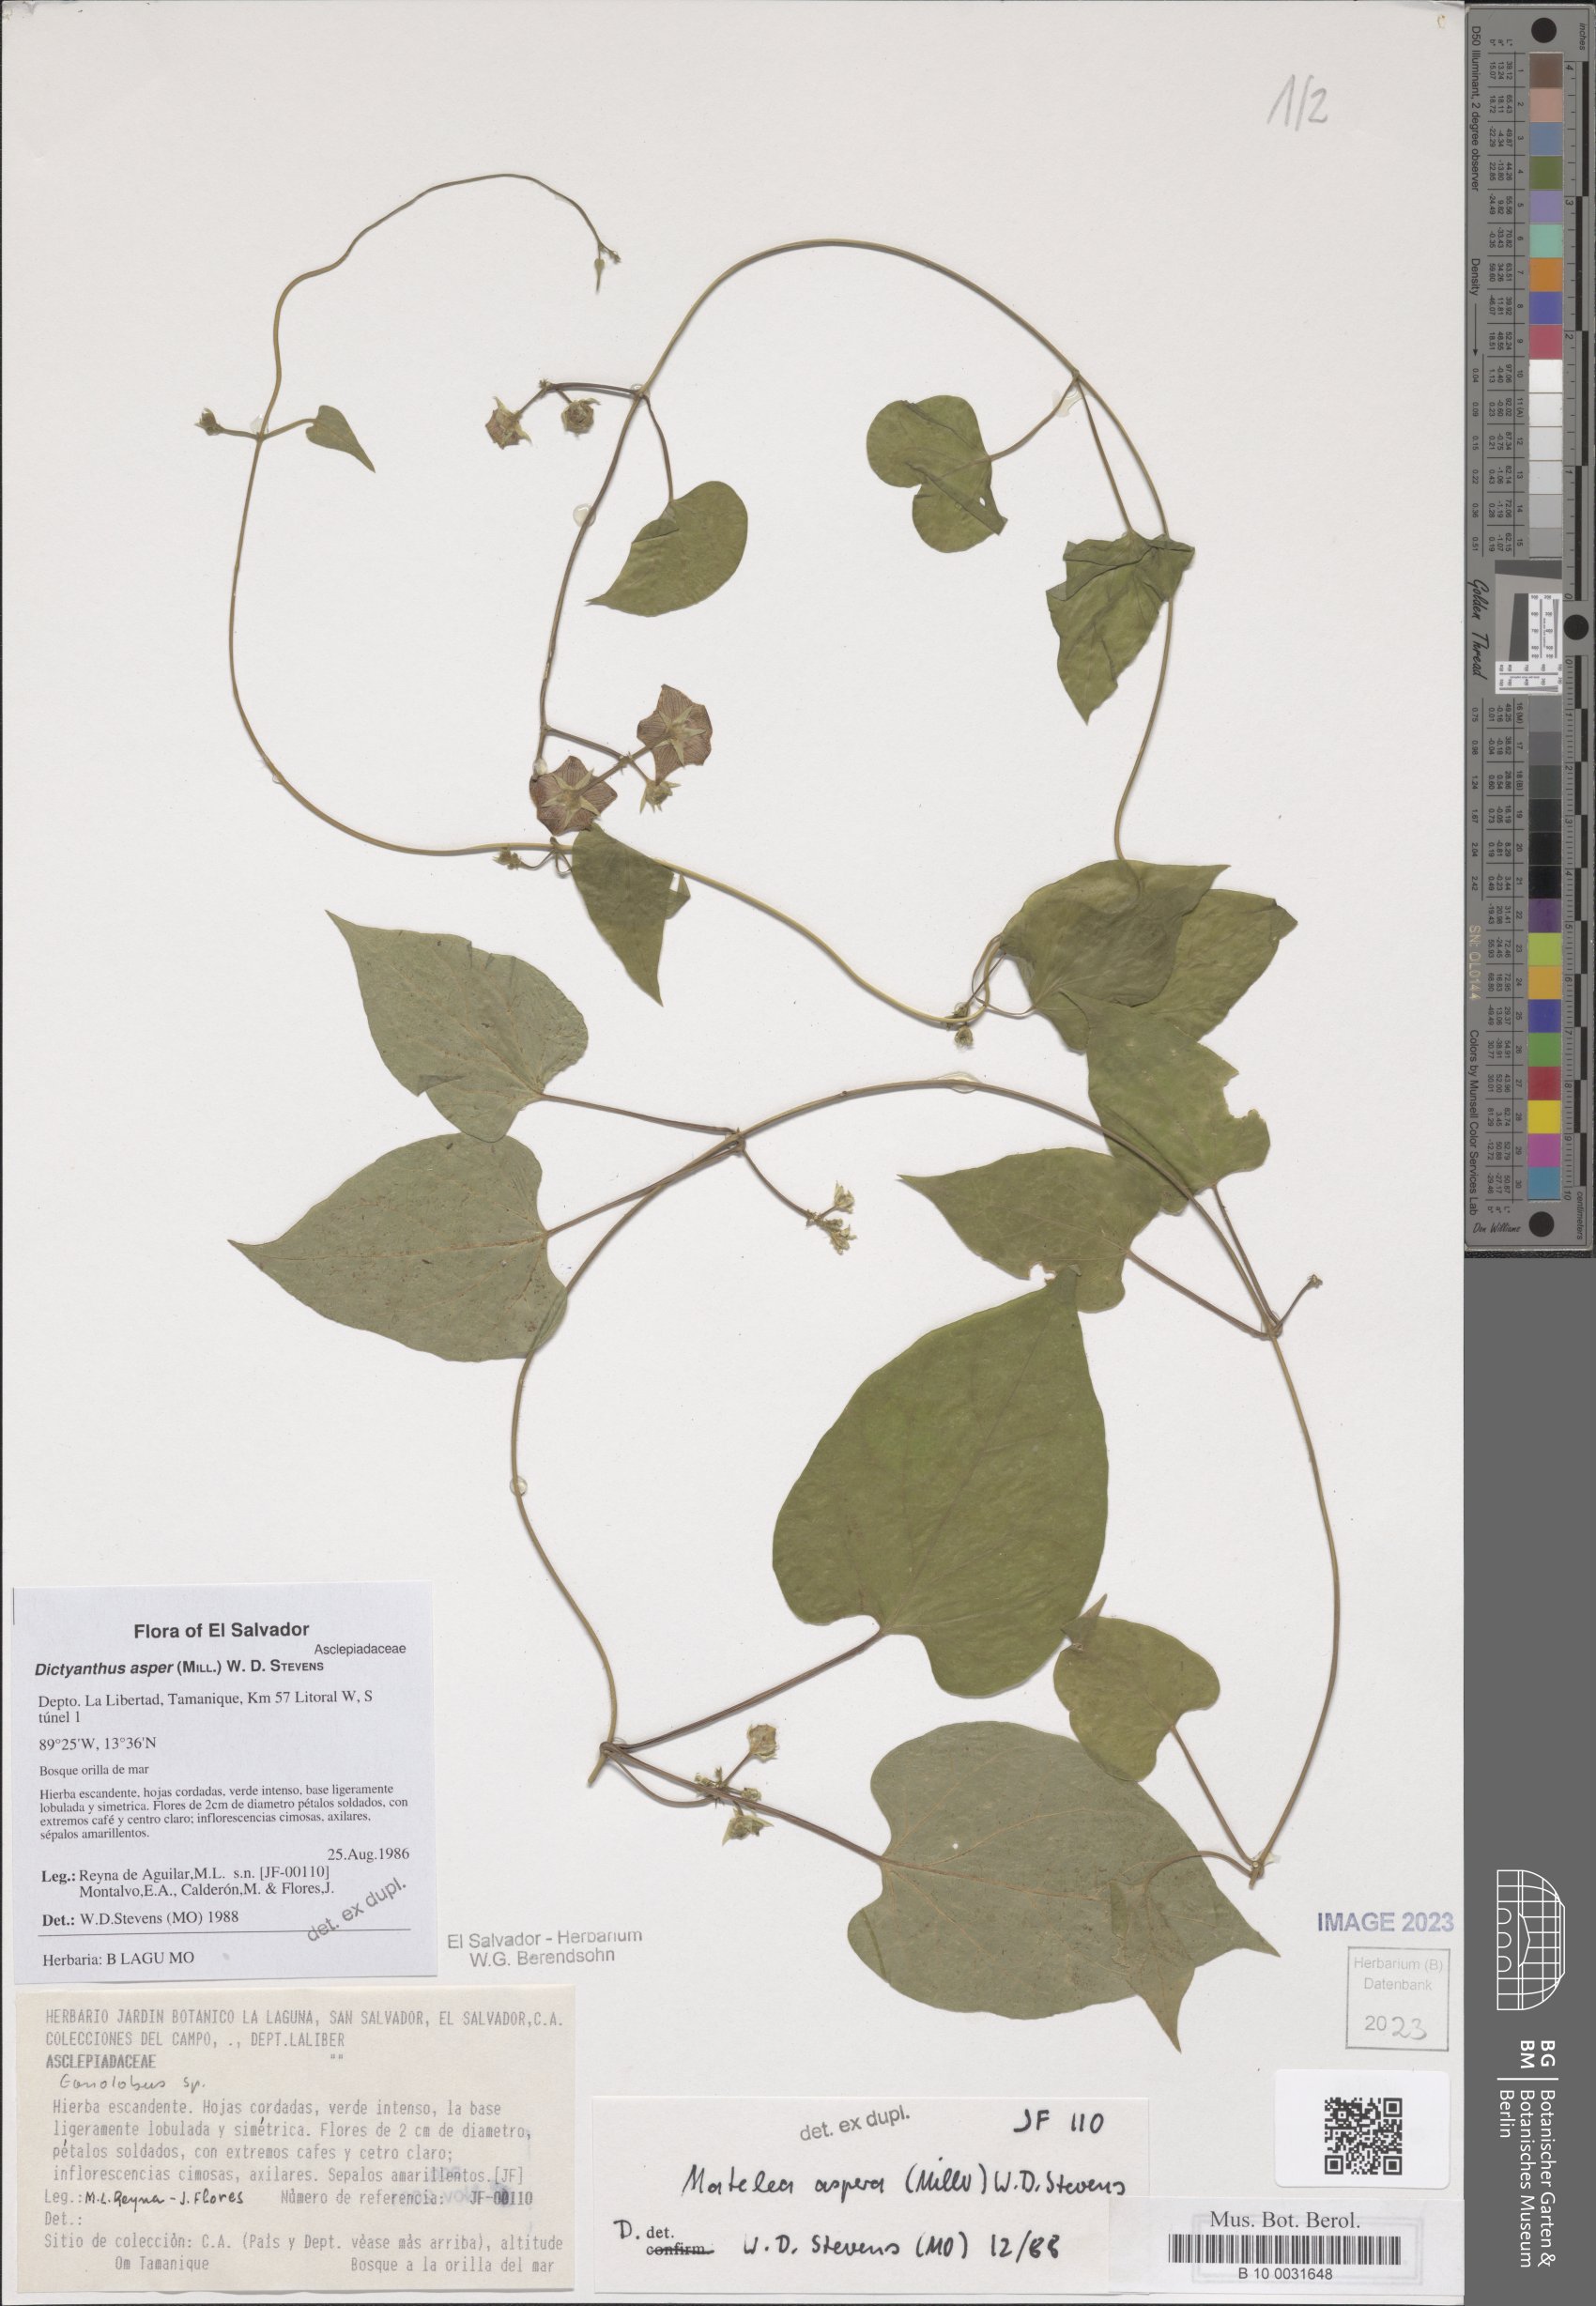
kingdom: Plantae
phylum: Tracheophyta
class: Magnoliopsida
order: Gentianales
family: Apocynaceae
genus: Dictyanthus
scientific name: Dictyanthus asper
